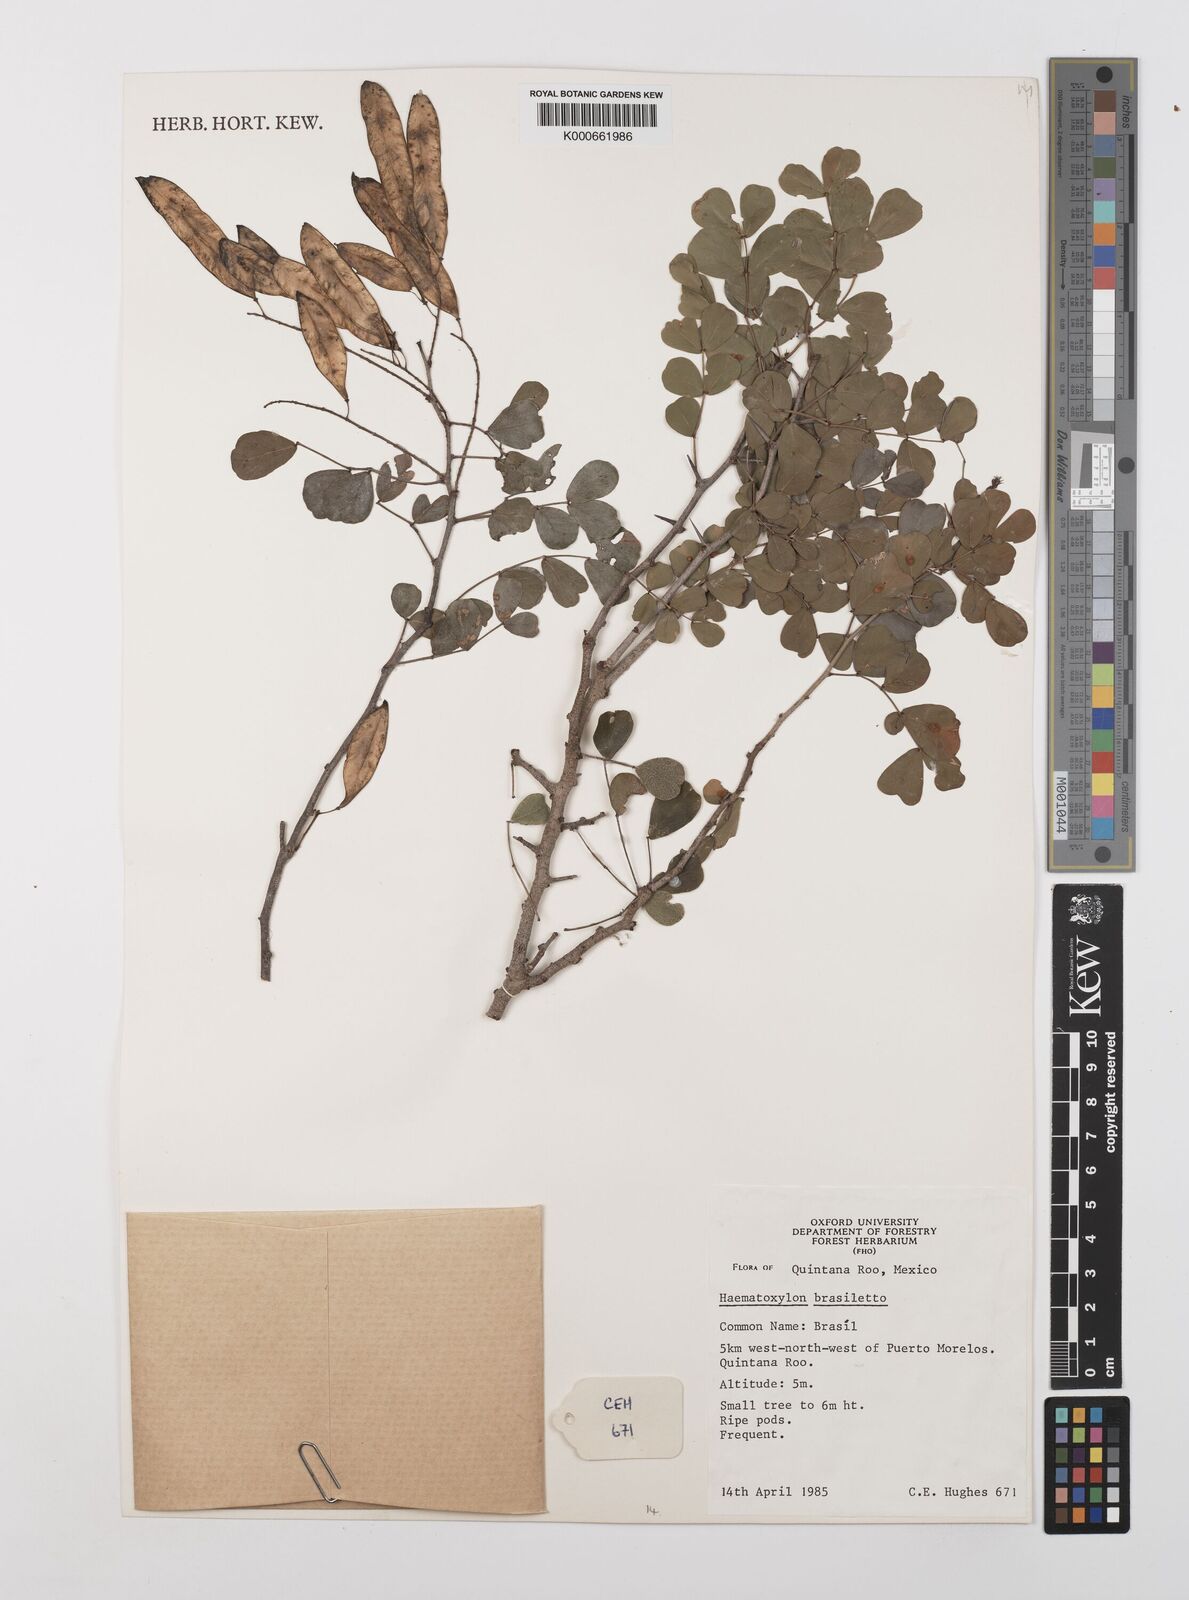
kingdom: Plantae
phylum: Tracheophyta
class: Magnoliopsida
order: Fabales
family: Fabaceae
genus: Haematoxylum
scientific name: Haematoxylum brasiletto
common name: Peachwood
